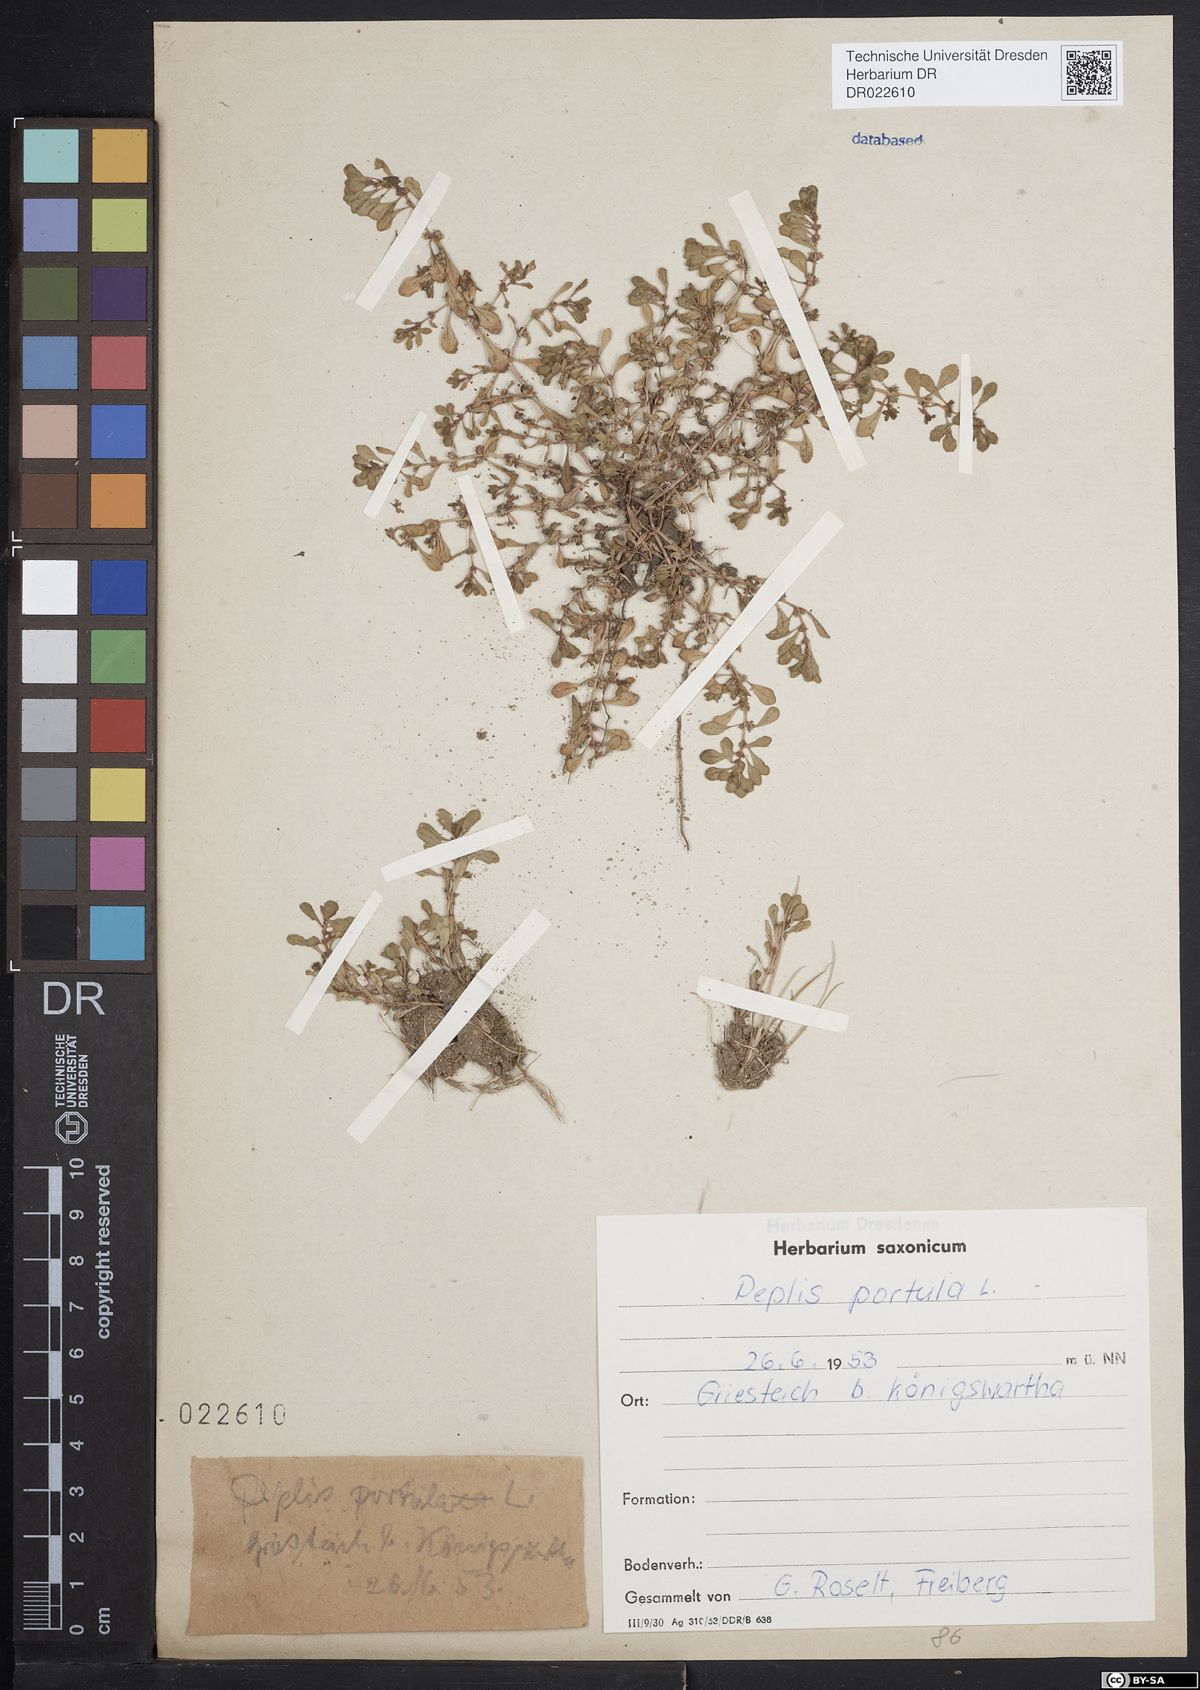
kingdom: Plantae
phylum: Tracheophyta
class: Magnoliopsida
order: Myrtales
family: Lythraceae
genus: Lythrum
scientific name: Lythrum portula
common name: Water purslane
